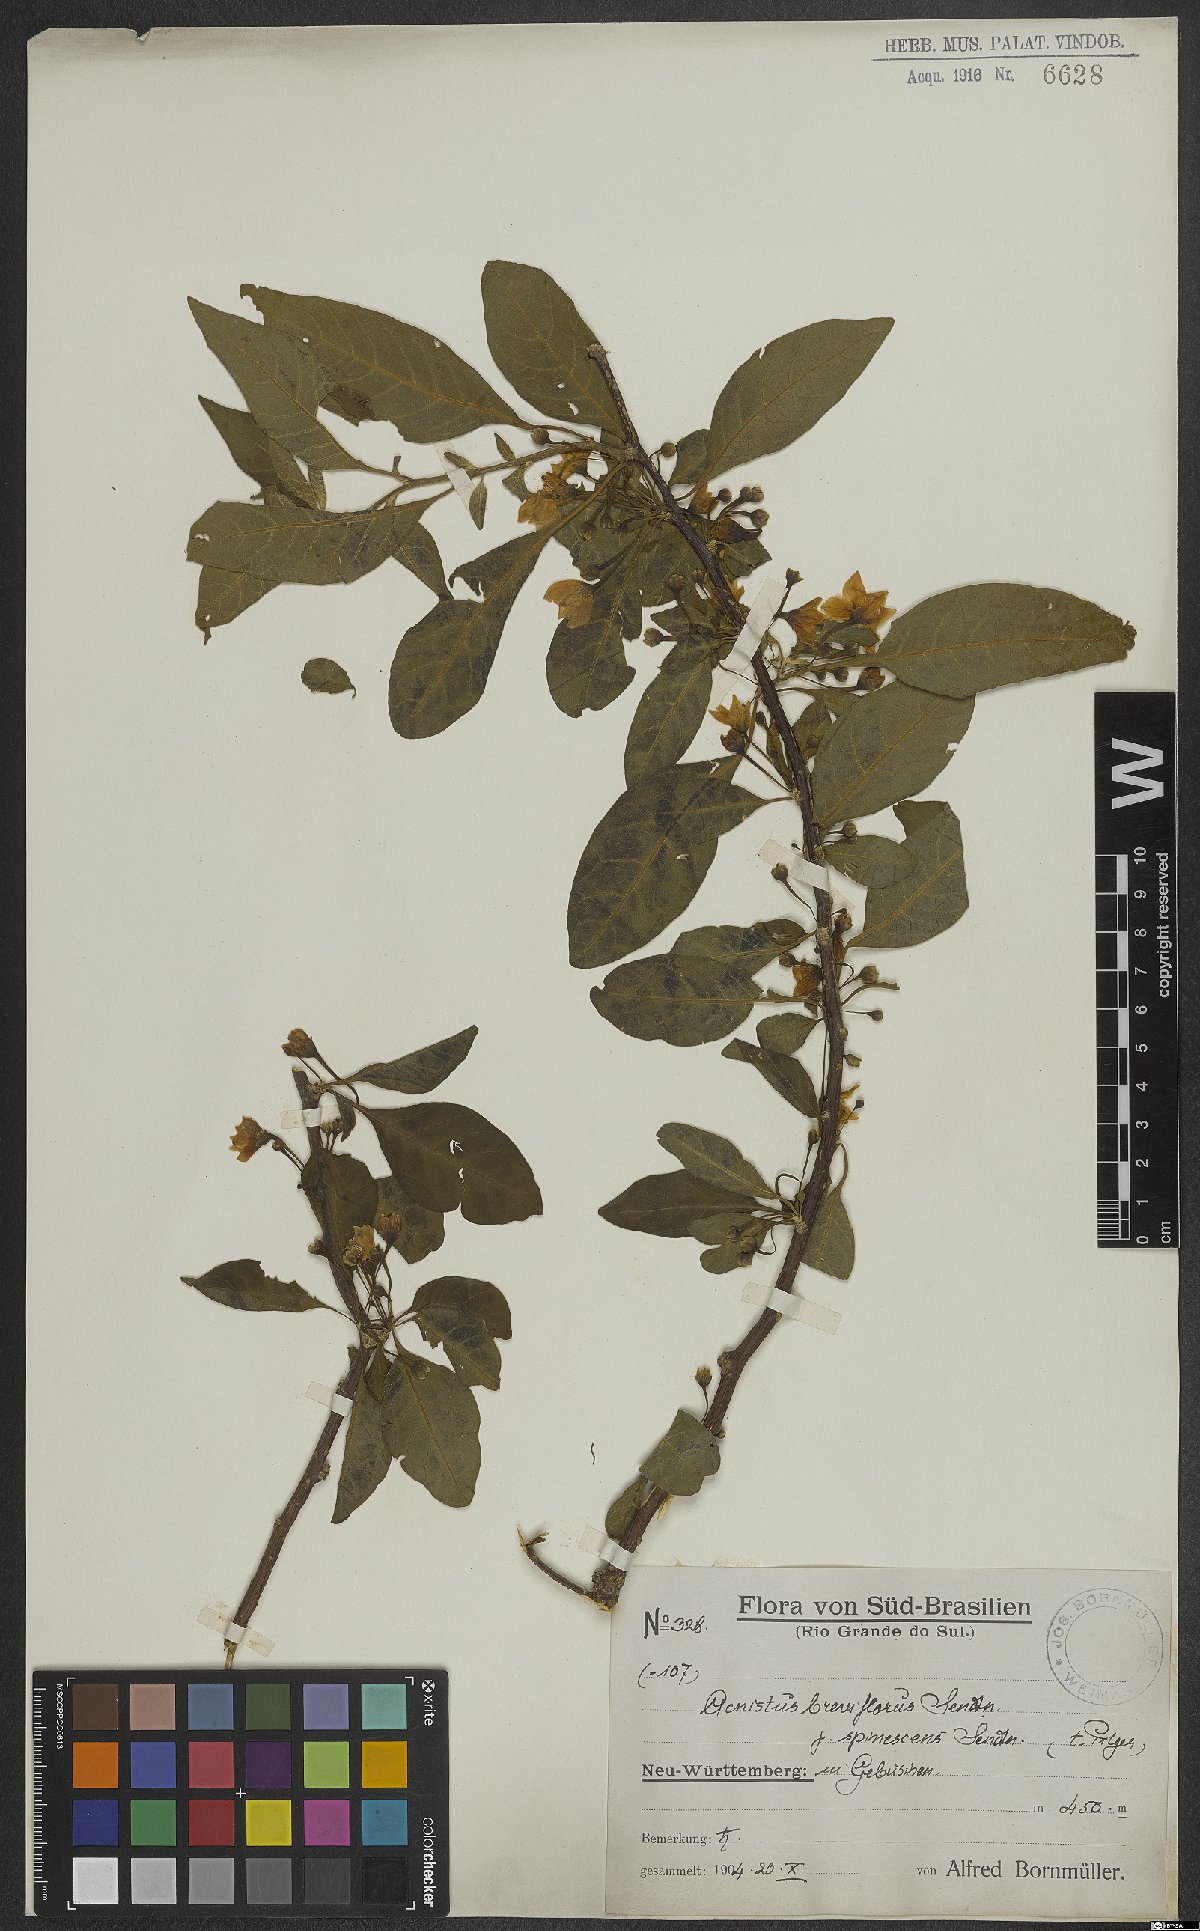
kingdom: Plantae
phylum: Tracheophyta
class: Magnoliopsida
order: Solanales
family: Solanaceae
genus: Vassobia
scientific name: Vassobia breviflora
